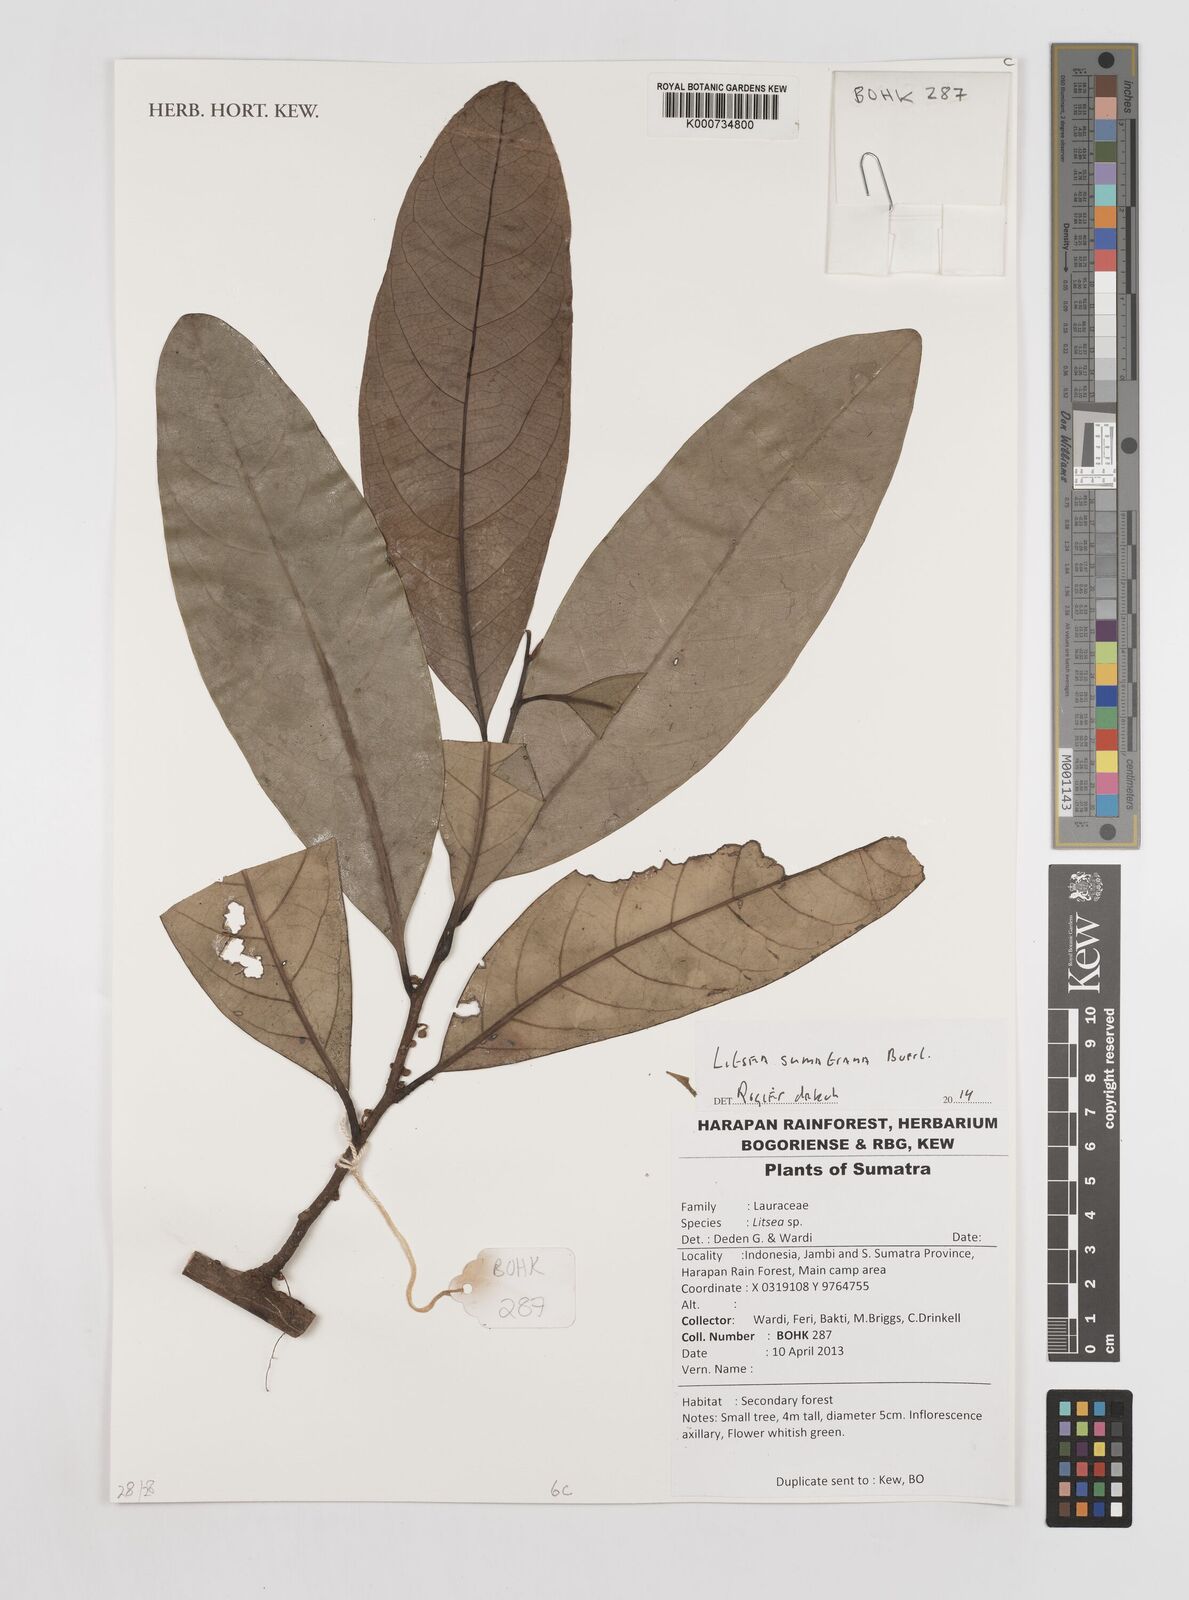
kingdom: Plantae
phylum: Tracheophyta
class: Magnoliopsida
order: Laurales
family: Lauraceae
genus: Litsea
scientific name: Litsea sumatrana
